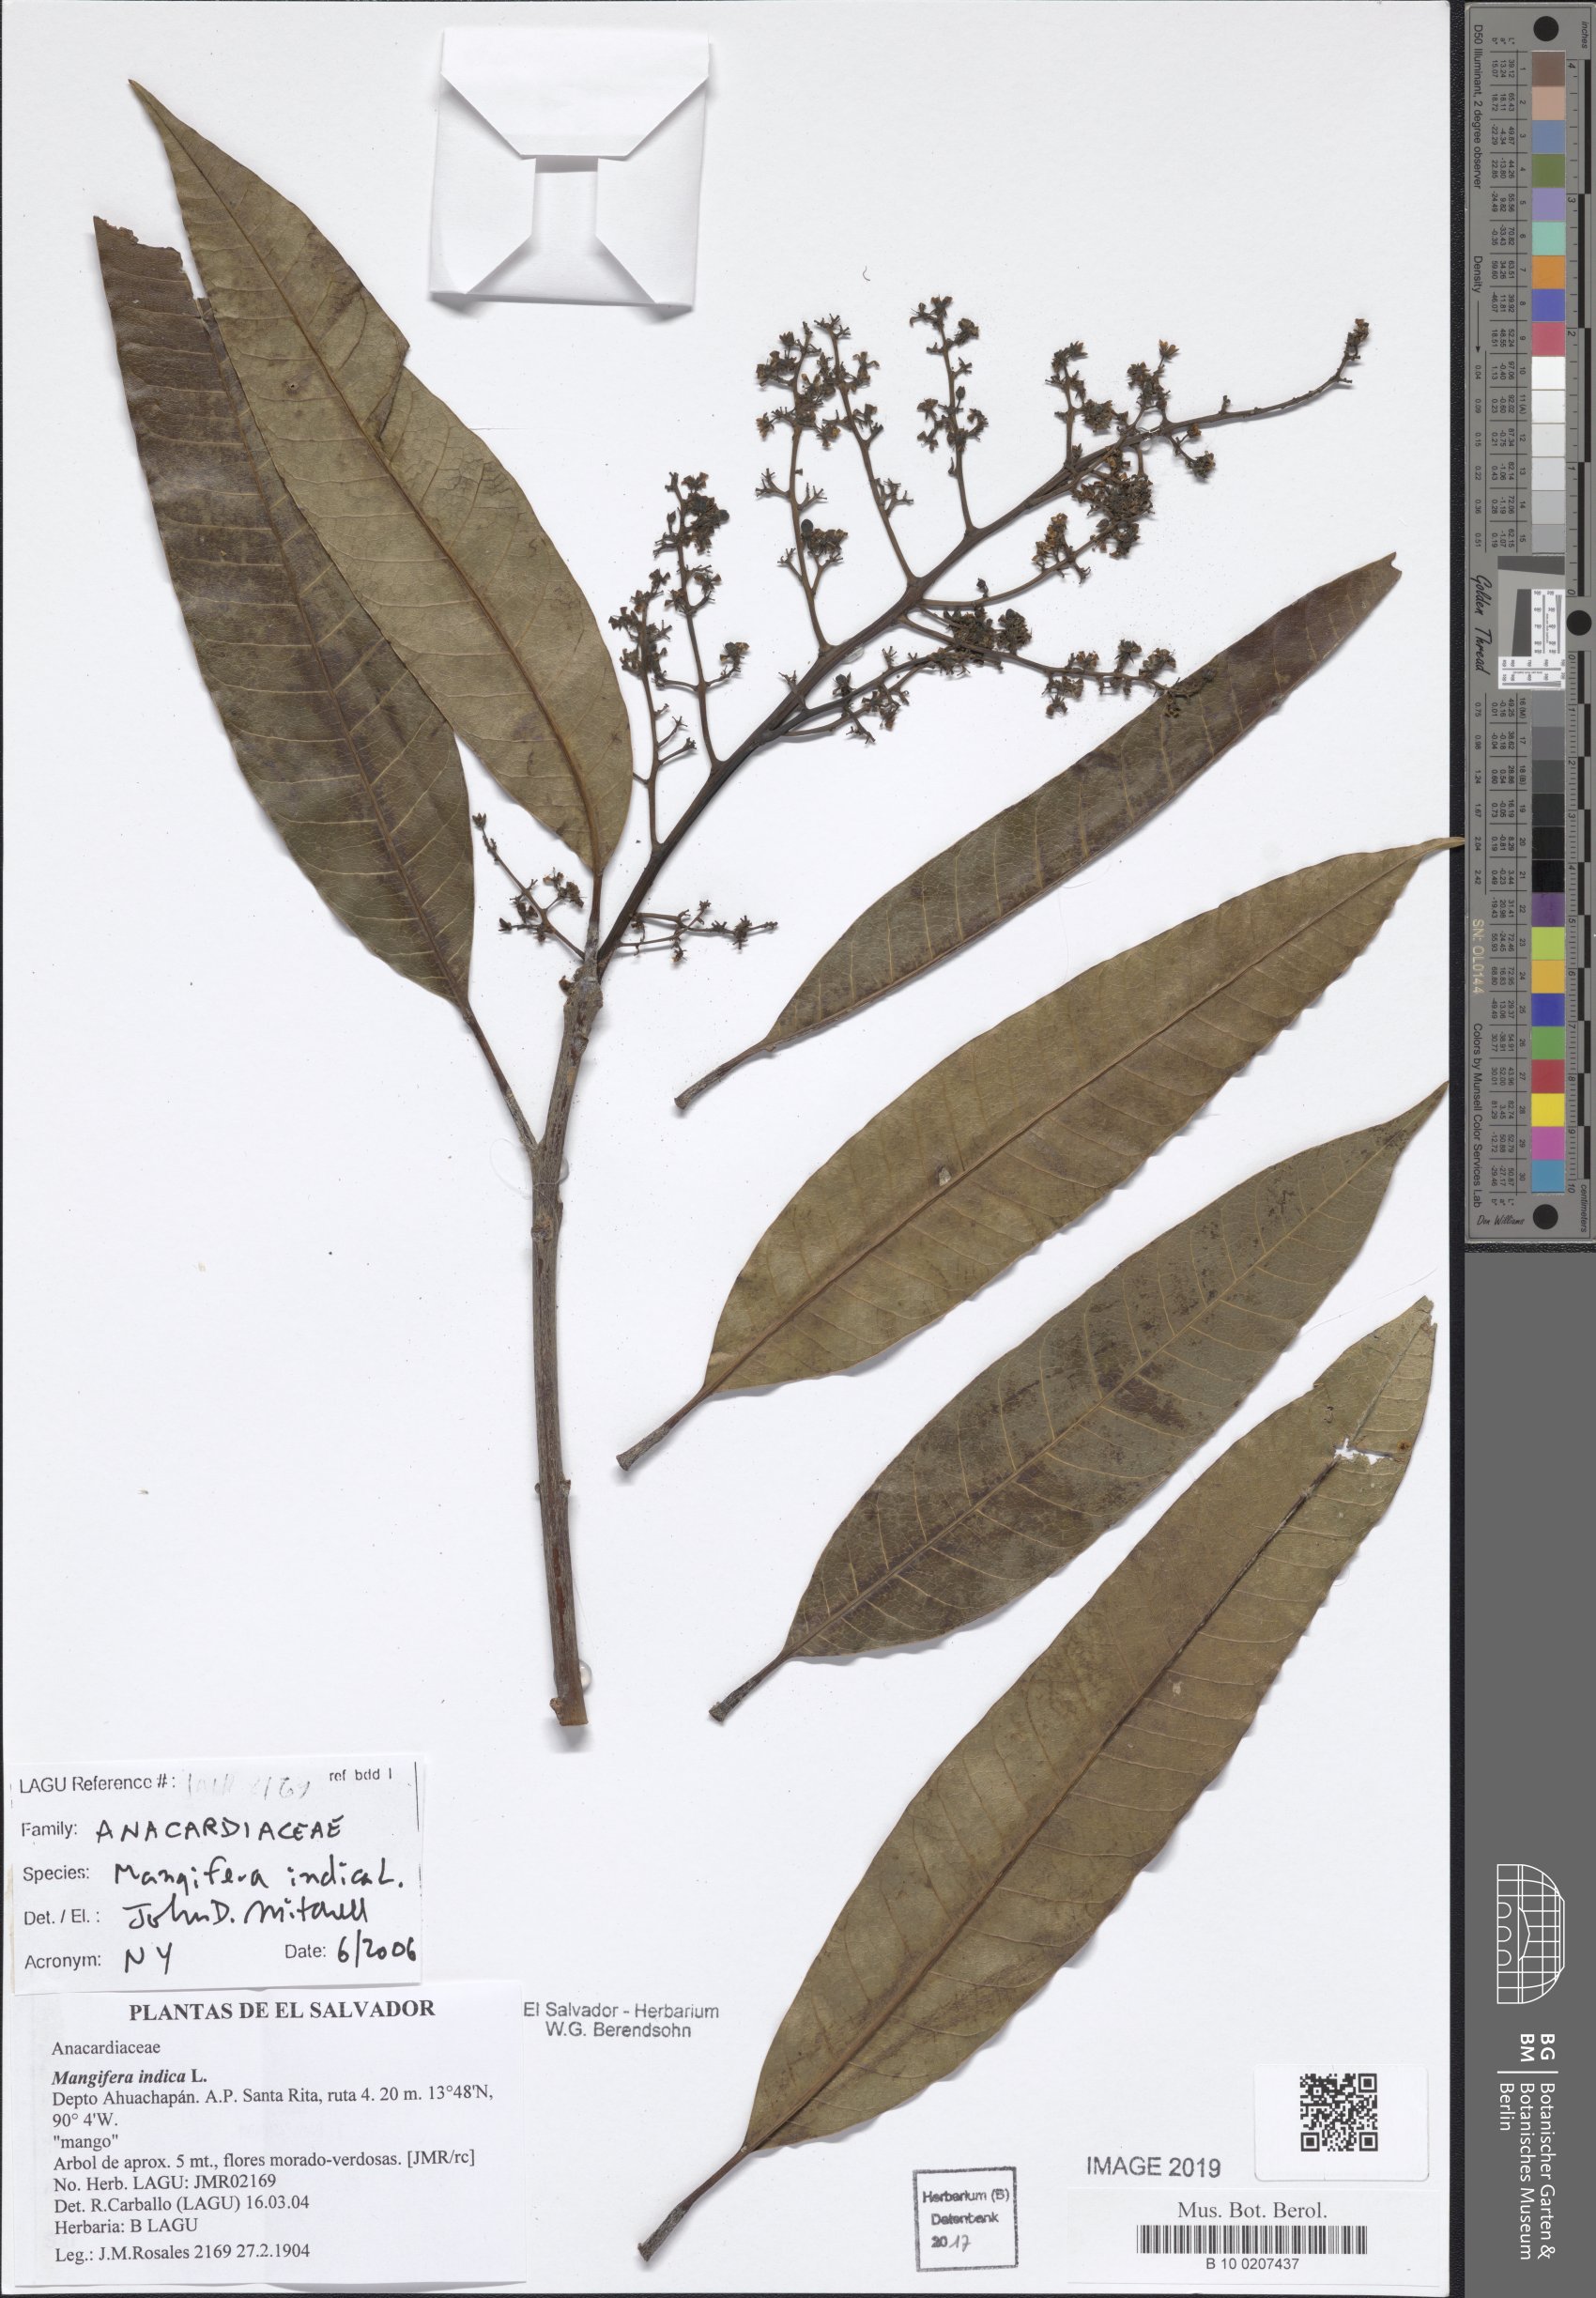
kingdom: Plantae
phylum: Tracheophyta
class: Magnoliopsida
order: Sapindales
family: Anacardiaceae
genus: Mangifera
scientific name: Mangifera indica
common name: Mango
